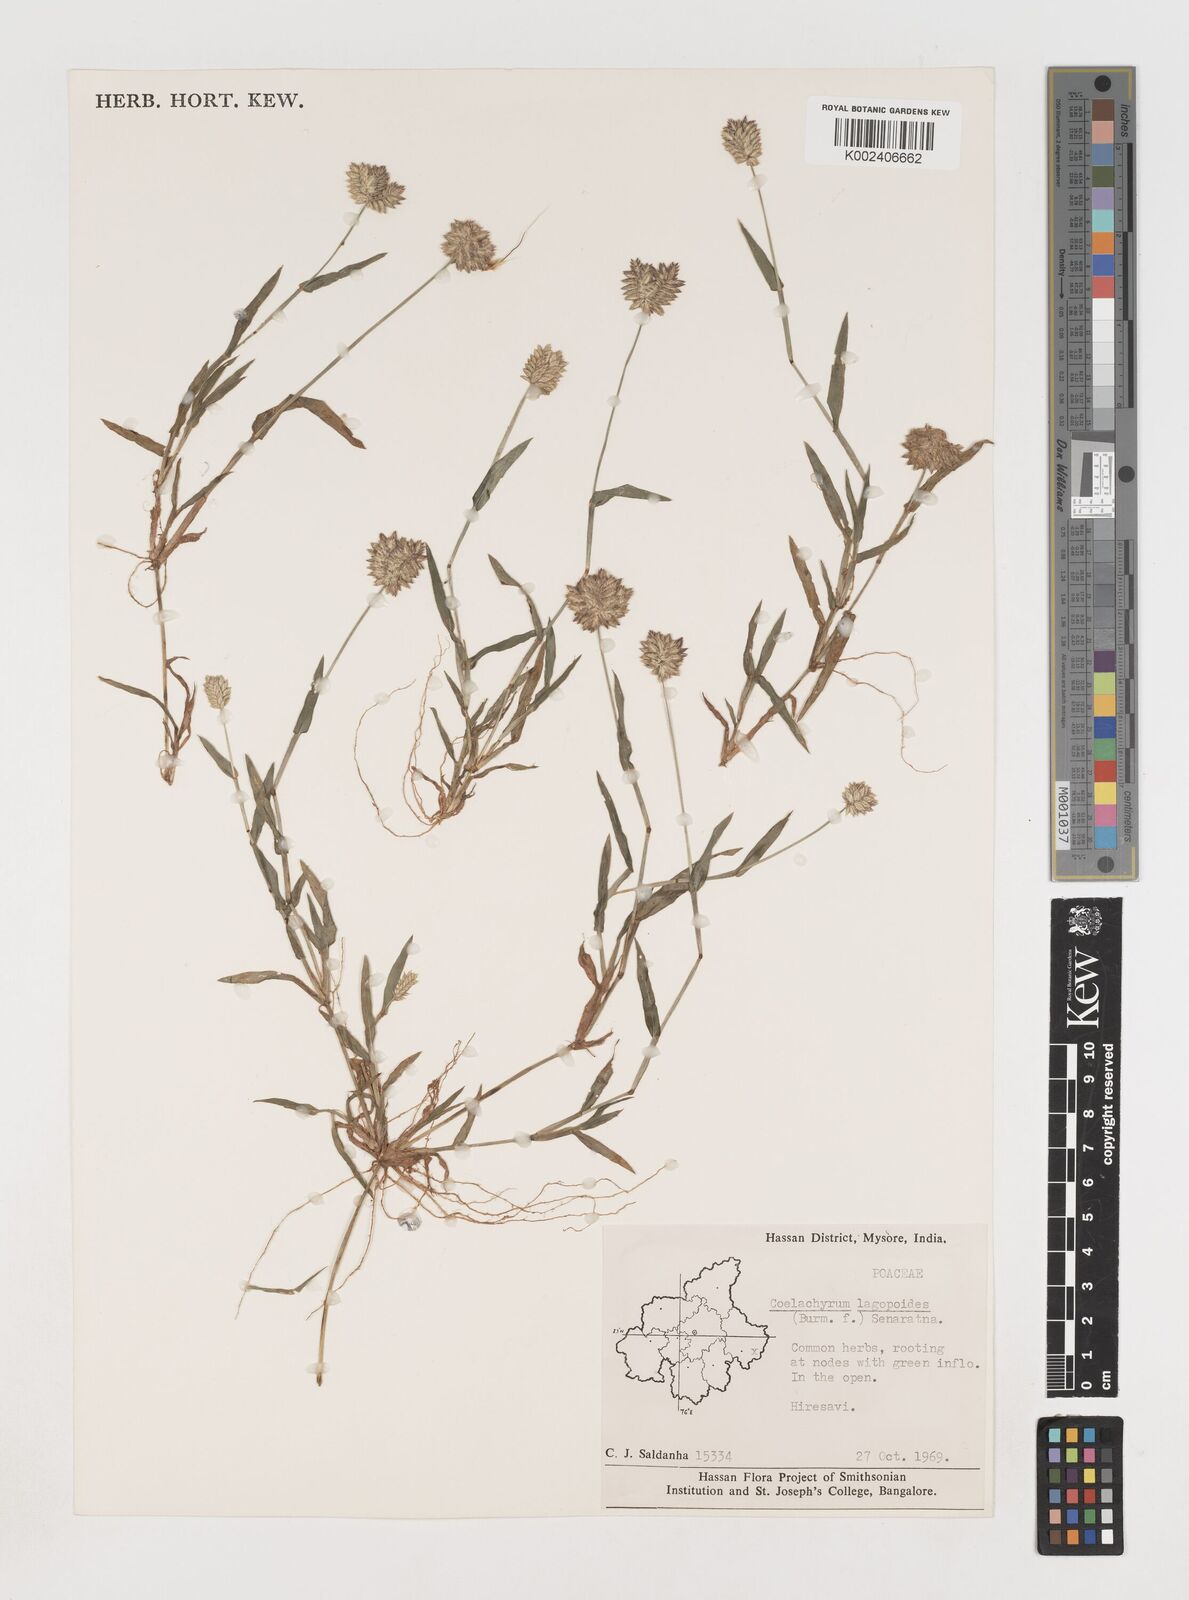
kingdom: Plantae
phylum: Tracheophyta
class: Liliopsida
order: Poales
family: Poaceae
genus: Coelachyrum
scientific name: Coelachyrum lagopoides
